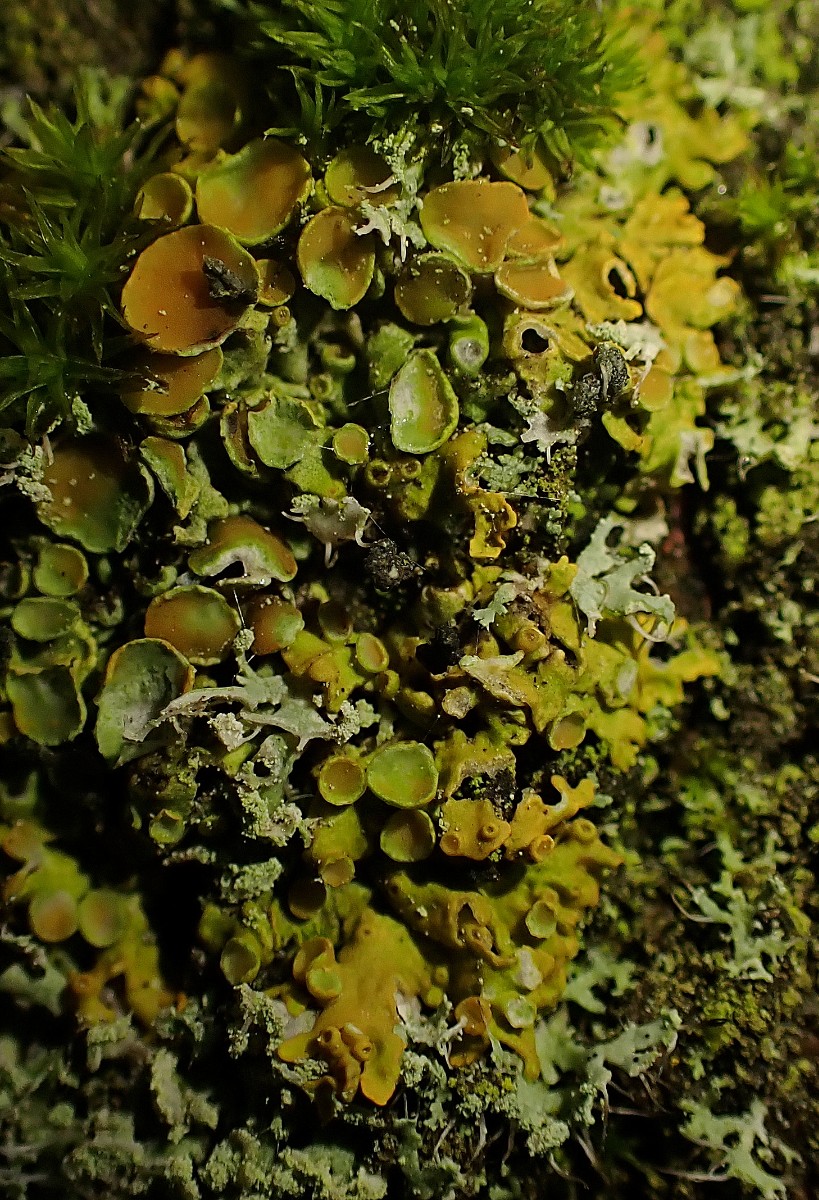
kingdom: Fungi
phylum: Ascomycota
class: Lecanoromycetes
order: Teloschistales
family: Teloschistaceae
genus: Xanthoria
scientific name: Xanthoria parietina
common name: almindelig væggelav
